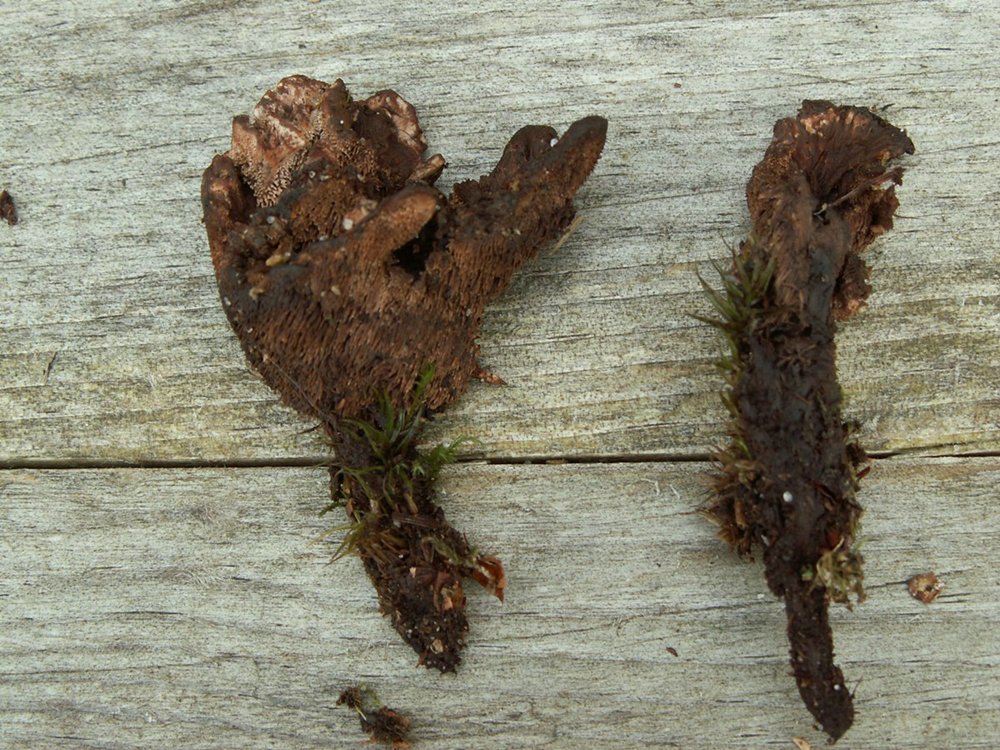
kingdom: Fungi
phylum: Basidiomycota
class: Agaricomycetes
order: Thelephorales
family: Bankeraceae
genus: Hydnellum
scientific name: Hydnellum concrescens
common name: bæltet korkpigsvamp
